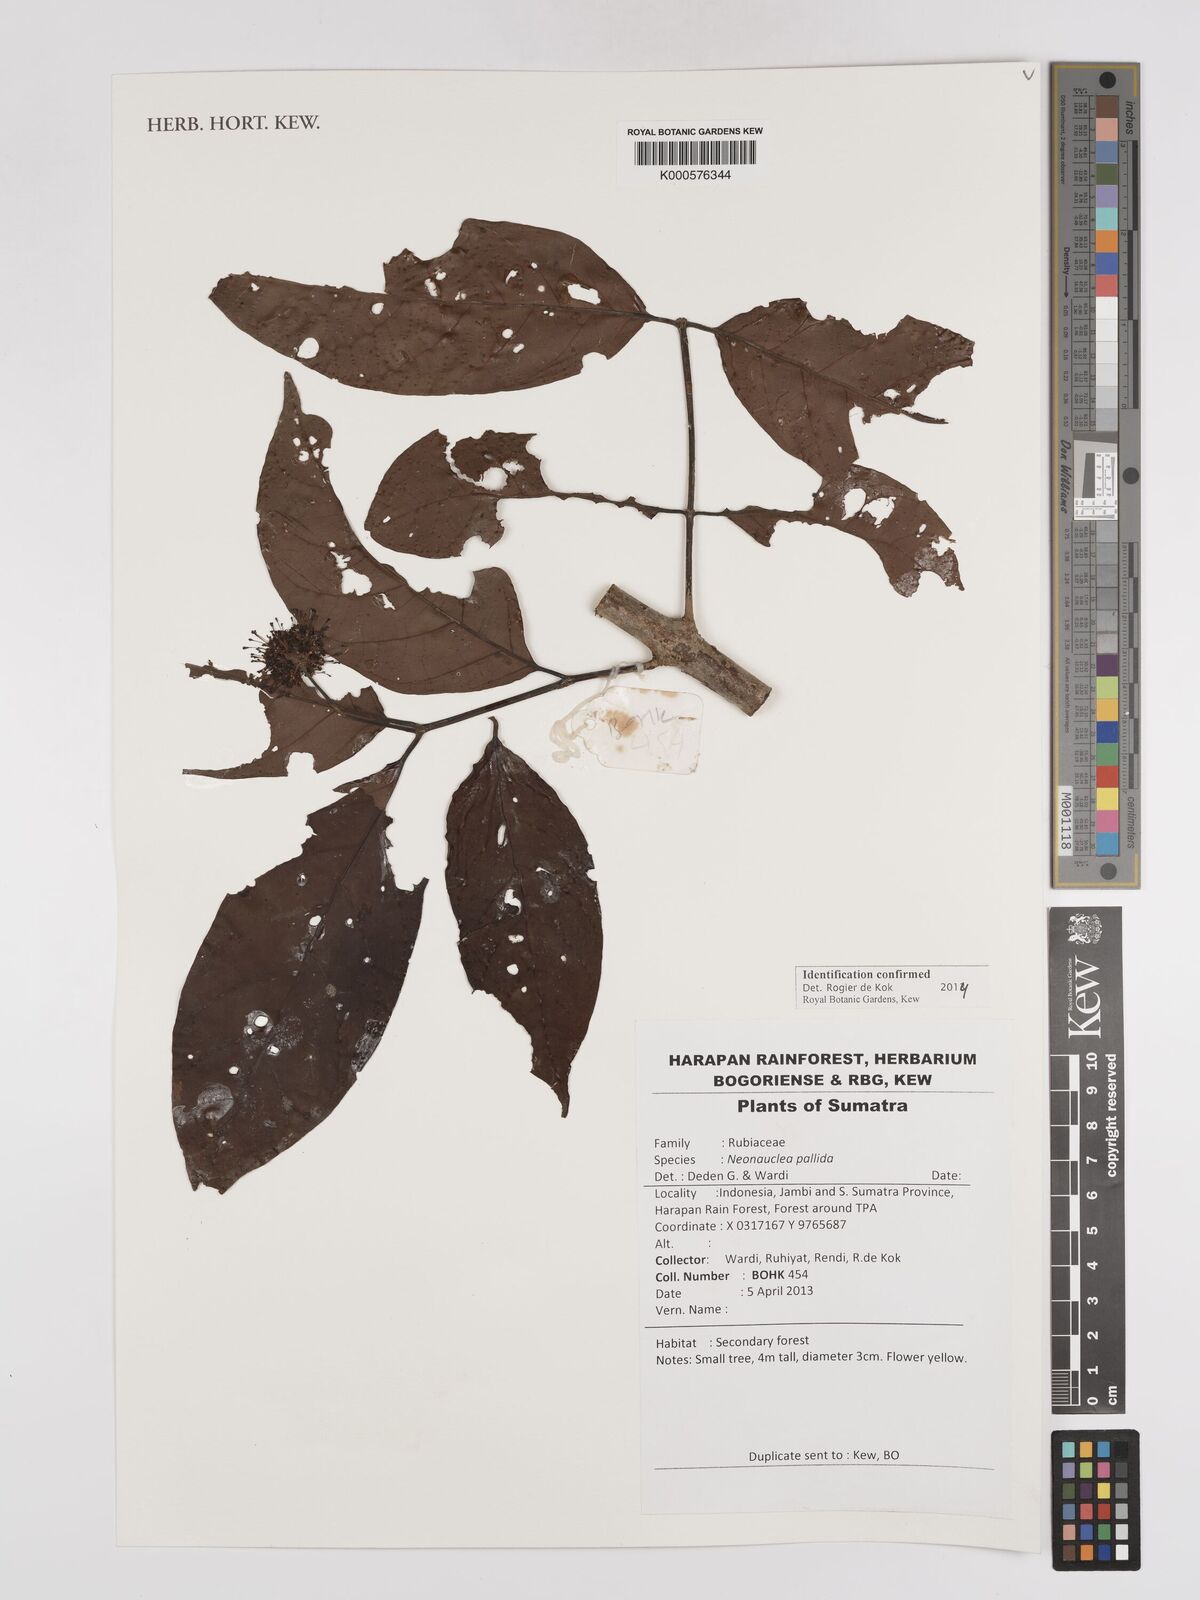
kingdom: Plantae
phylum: Tracheophyta
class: Magnoliopsida
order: Gentianales
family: Rubiaceae
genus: Neonauclea
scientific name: Neonauclea pallida
